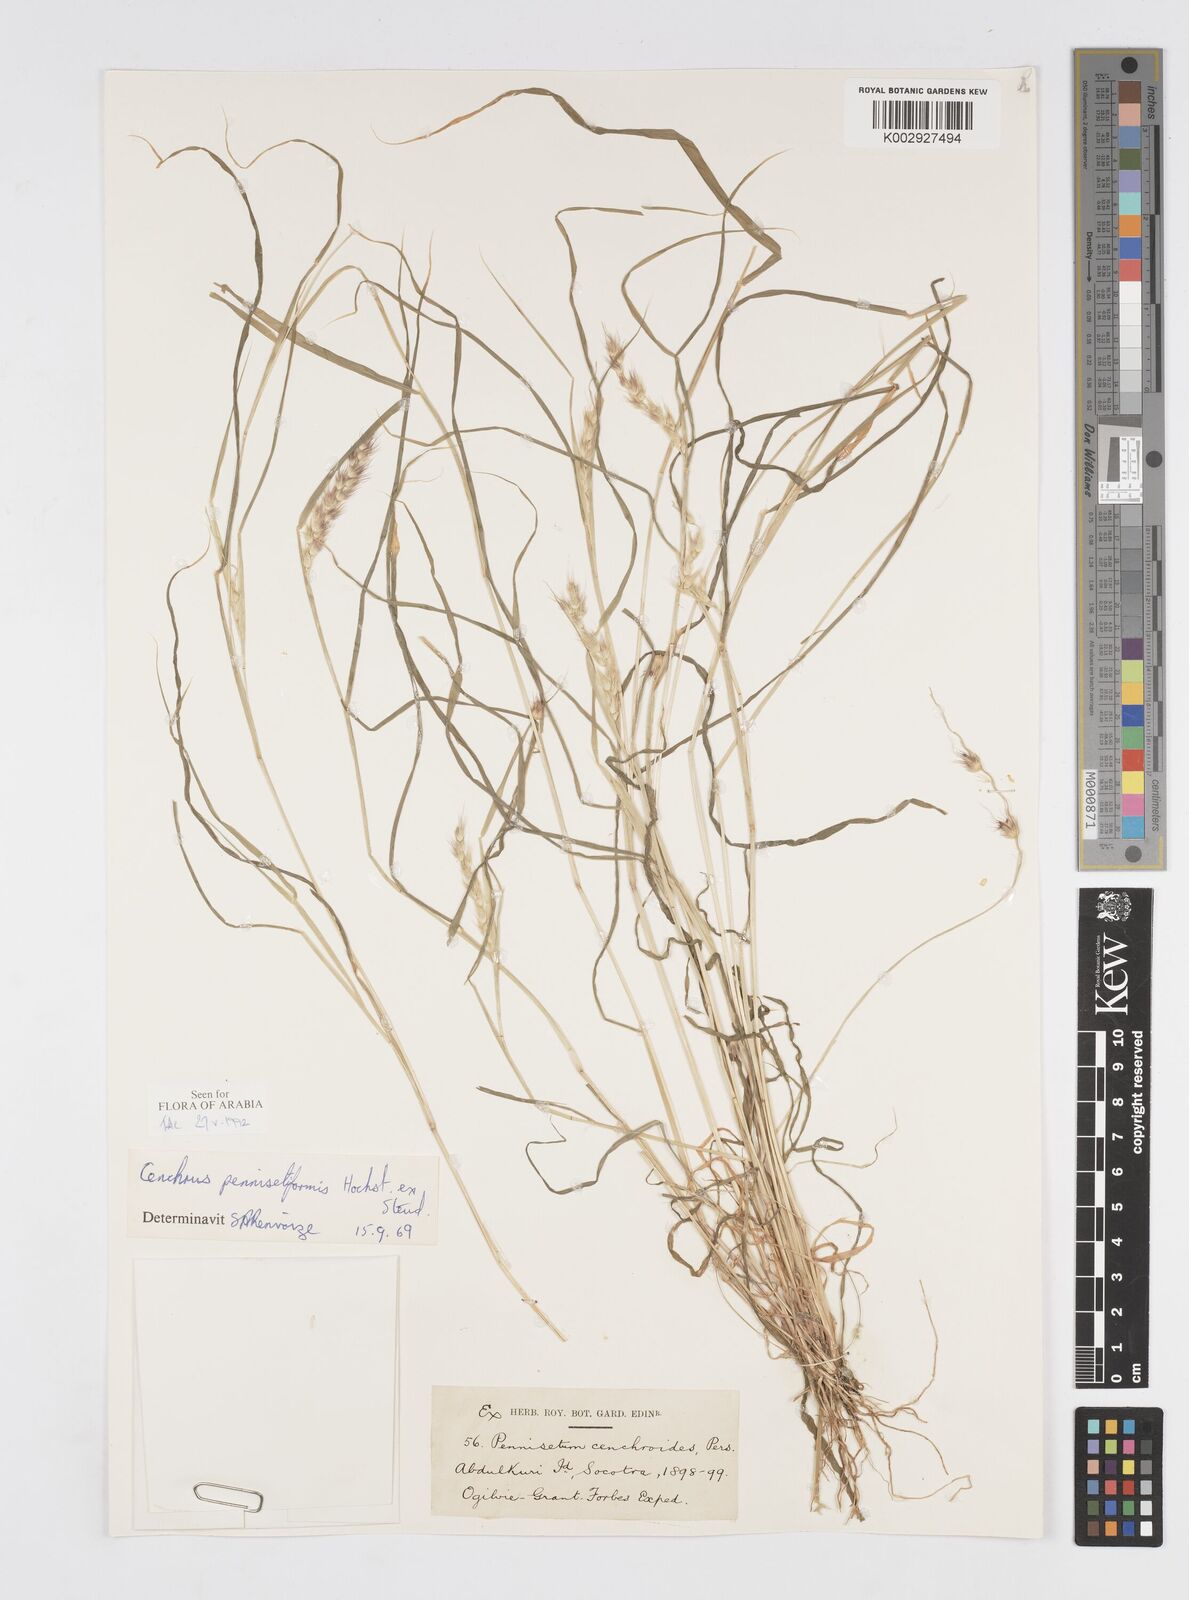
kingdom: Plantae
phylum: Tracheophyta
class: Liliopsida
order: Poales
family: Poaceae
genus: Cenchrus
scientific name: Cenchrus pennisetiformis
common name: Cloncurry
